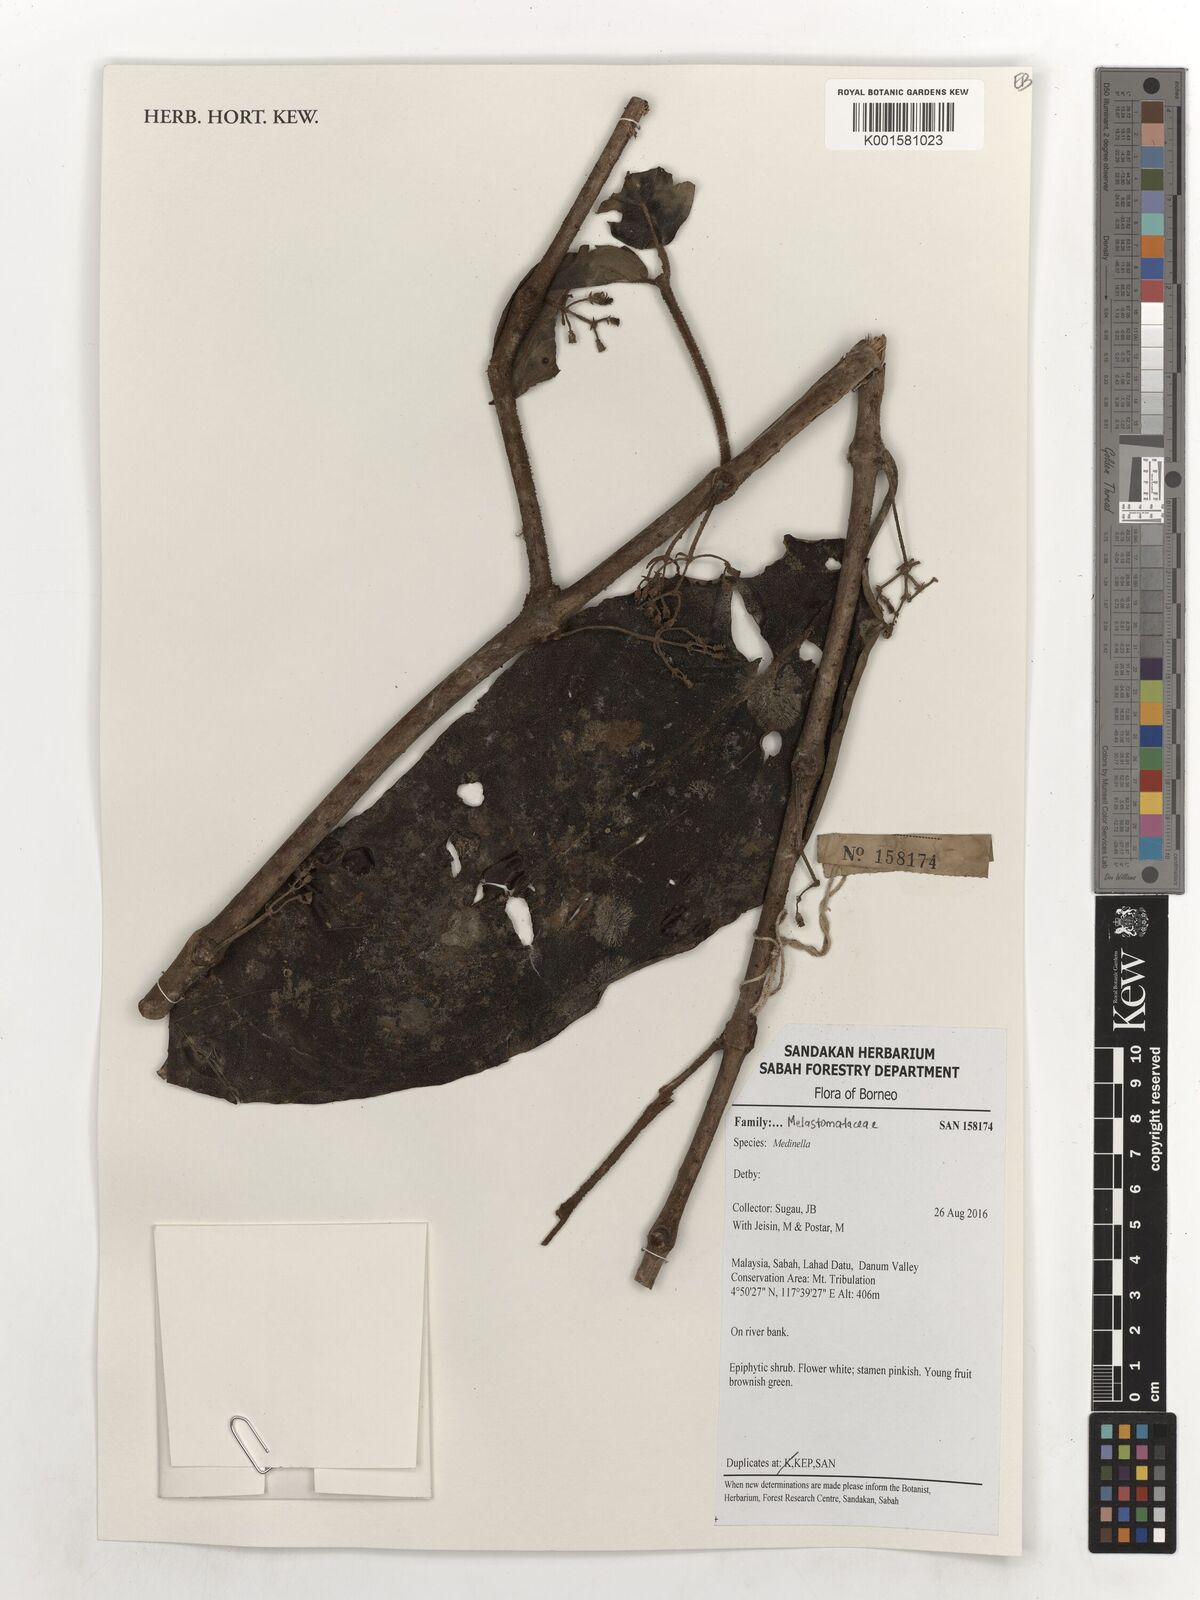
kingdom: Plantae
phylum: Tracheophyta
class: Magnoliopsida
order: Myrtales
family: Melastomataceae
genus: Medinilla
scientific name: Medinilla
